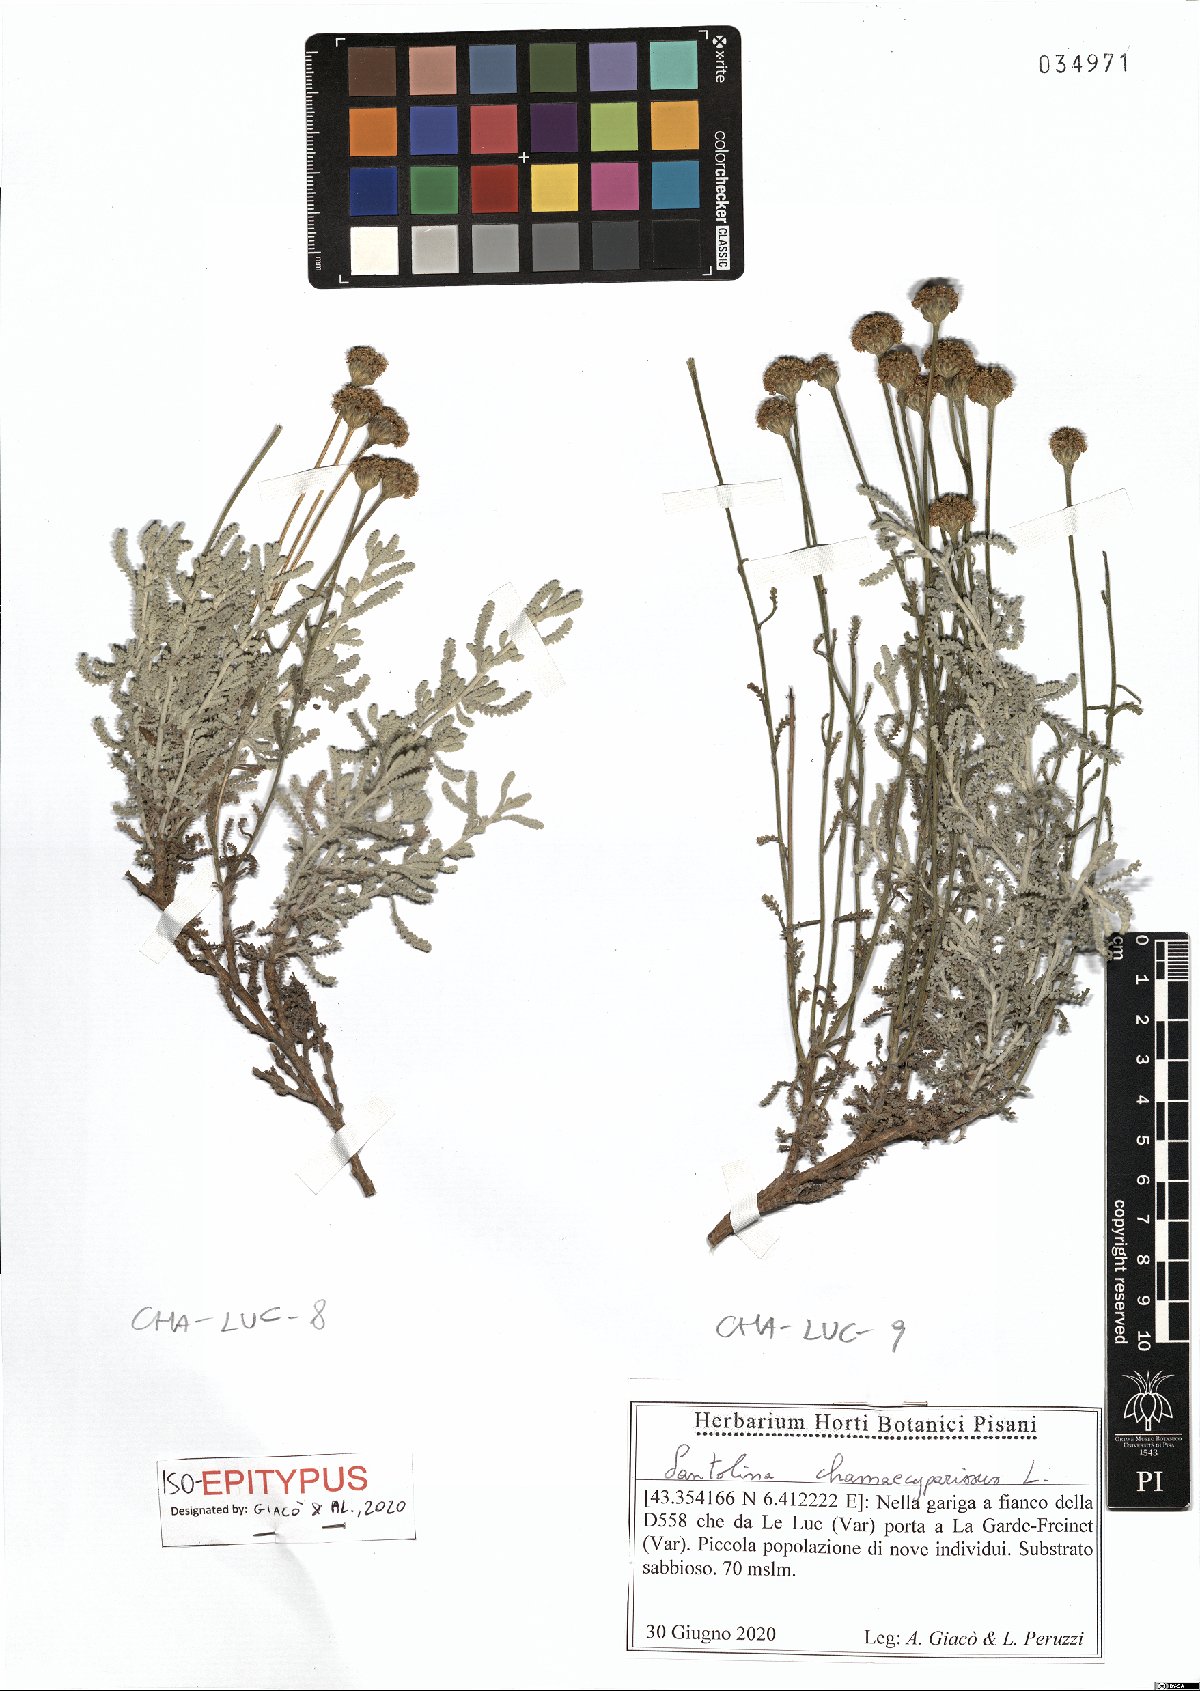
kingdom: Plantae
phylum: Tracheophyta
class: Magnoliopsida
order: Asterales
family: Asteraceae
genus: Santolina
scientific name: Santolina chamaecyparissus
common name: Lavender-cotton
